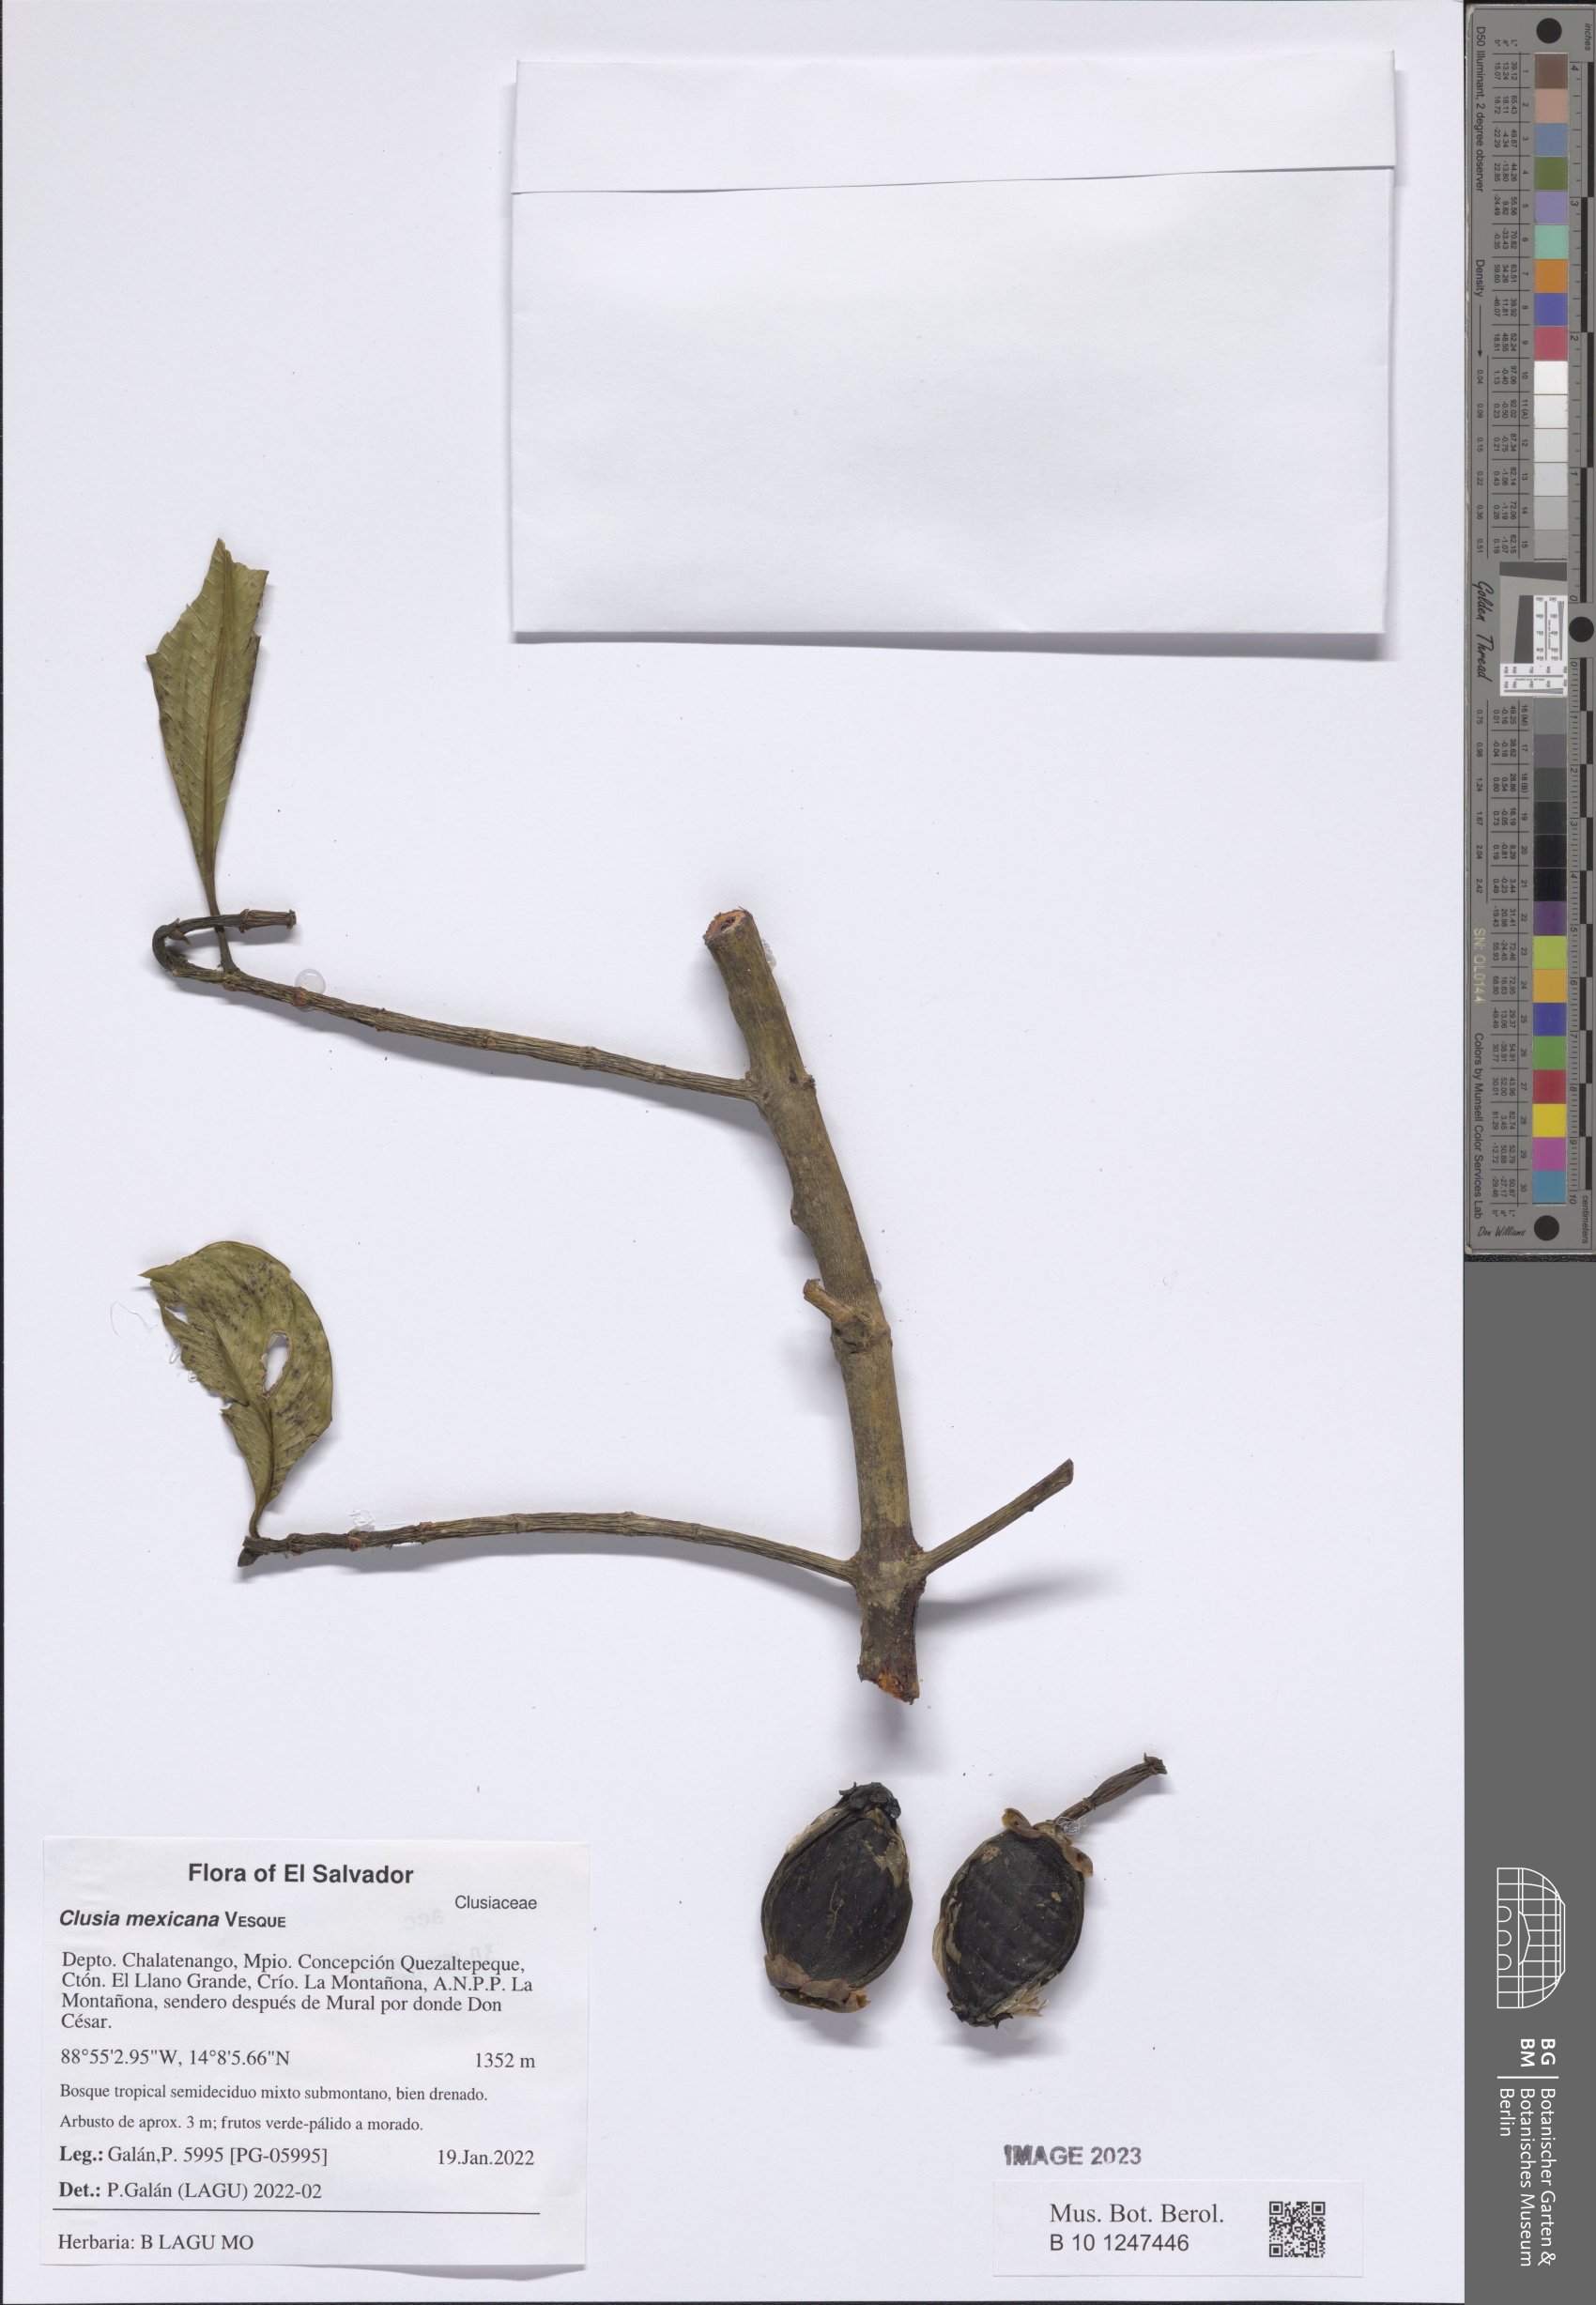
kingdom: Plantae
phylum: Tracheophyta
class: Magnoliopsida
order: Malpighiales
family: Clusiaceae
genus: Clusia
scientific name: Clusia guatemalensis
